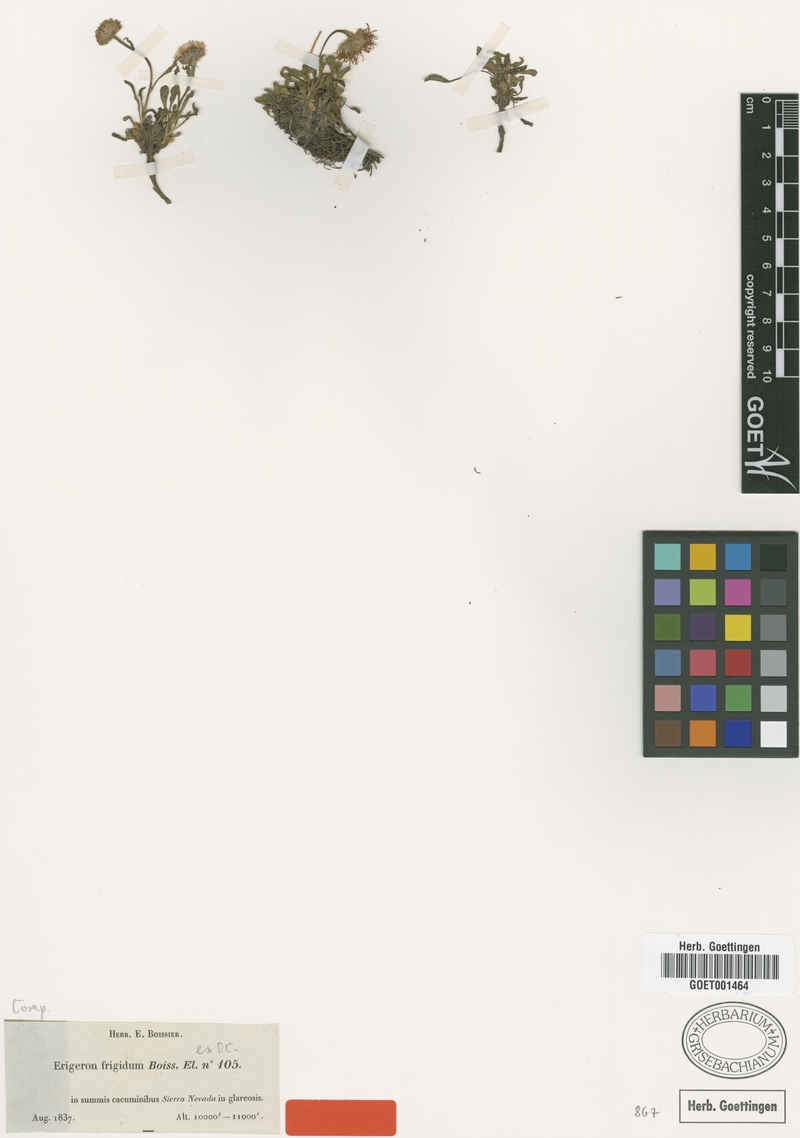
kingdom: Plantae
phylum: Tracheophyta
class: Magnoliopsida
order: Asterales
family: Asteraceae
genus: Erigeron
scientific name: Erigeron frigidus
